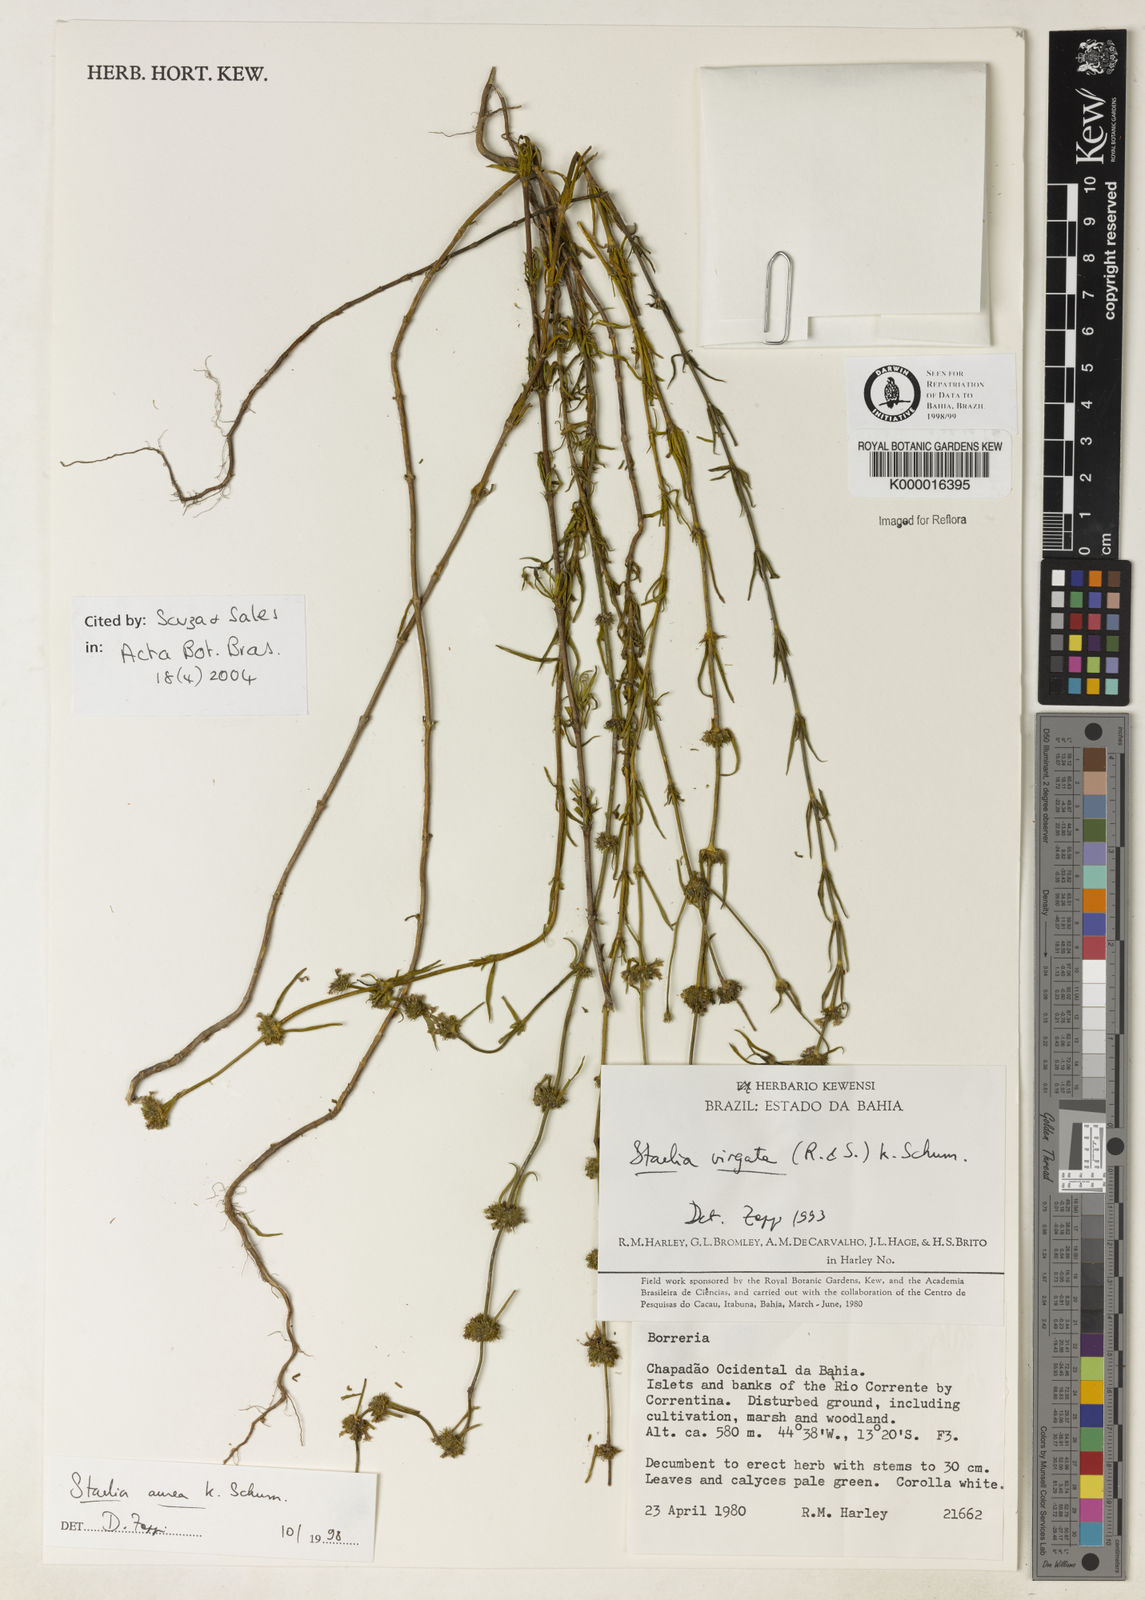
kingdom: Plantae
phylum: Tracheophyta
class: Magnoliopsida
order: Gentianales
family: Rubiaceae
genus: Staelia
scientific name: Staelia aurea
